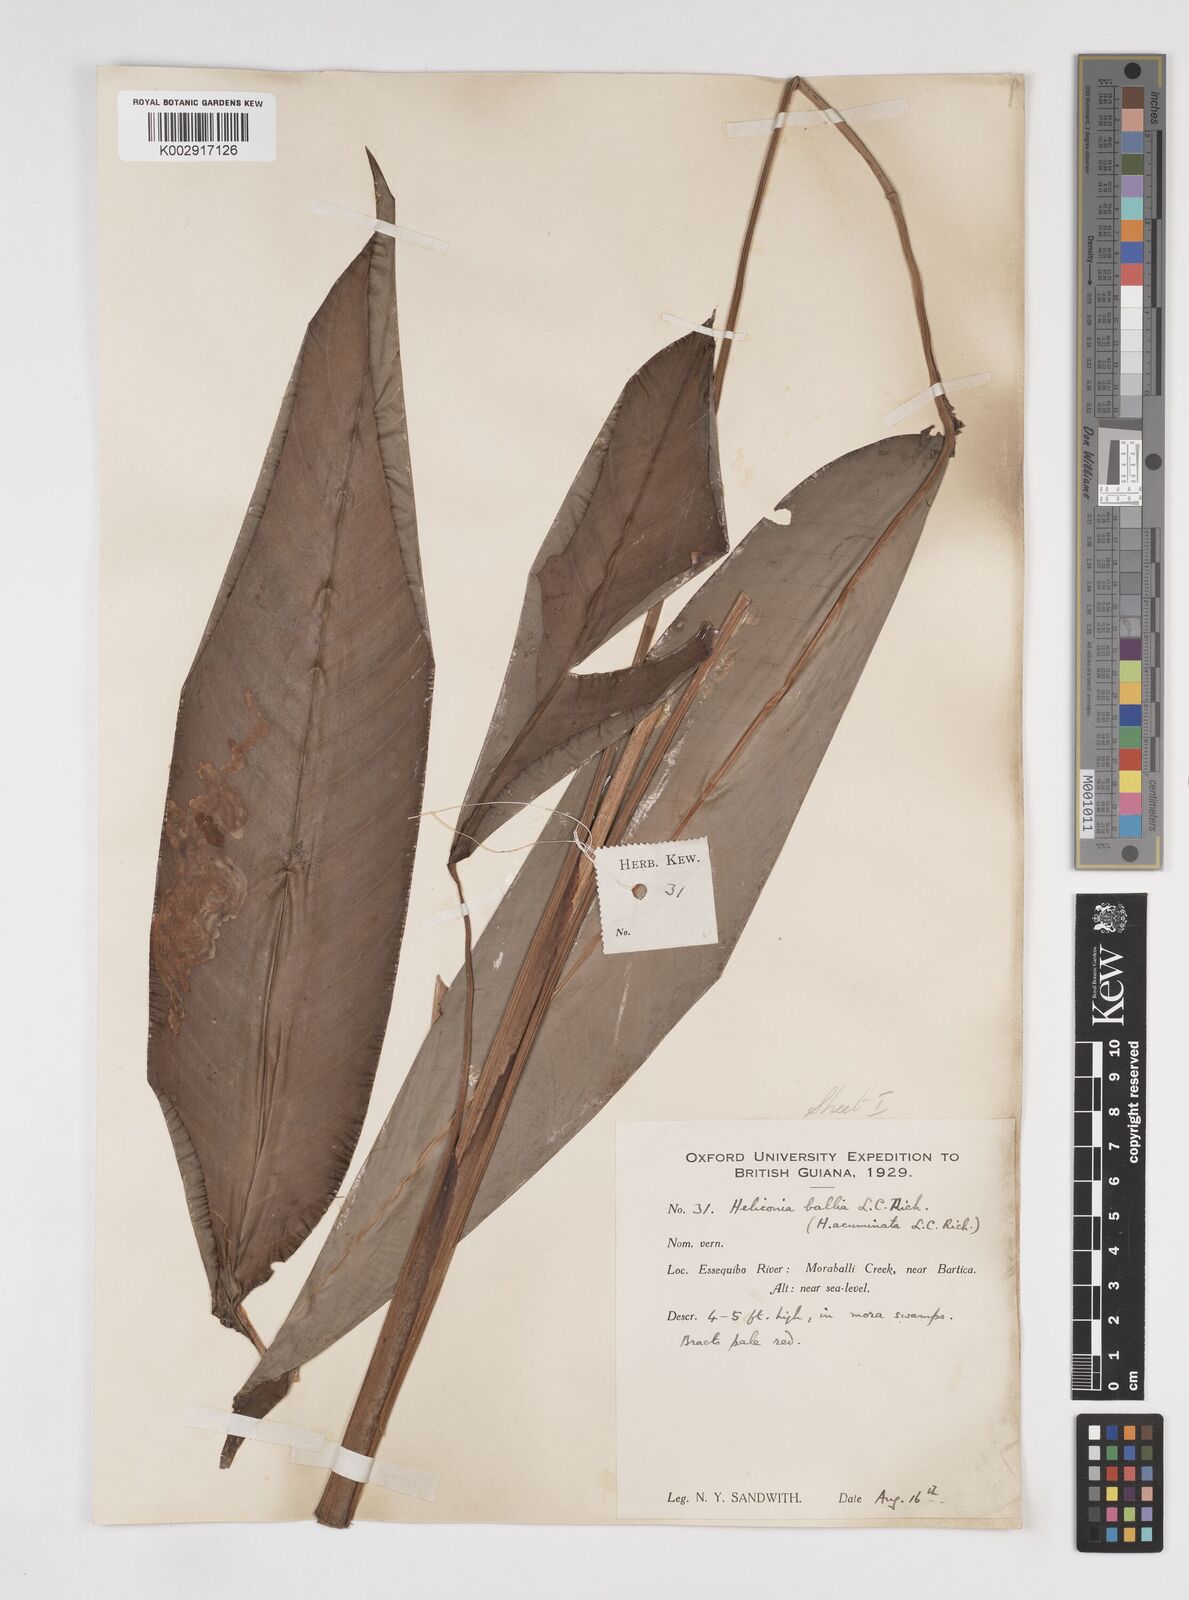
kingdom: Plantae
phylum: Tracheophyta
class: Liliopsida
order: Zingiberales
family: Heliconiaceae
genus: Heliconia
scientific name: Heliconia acuminata
